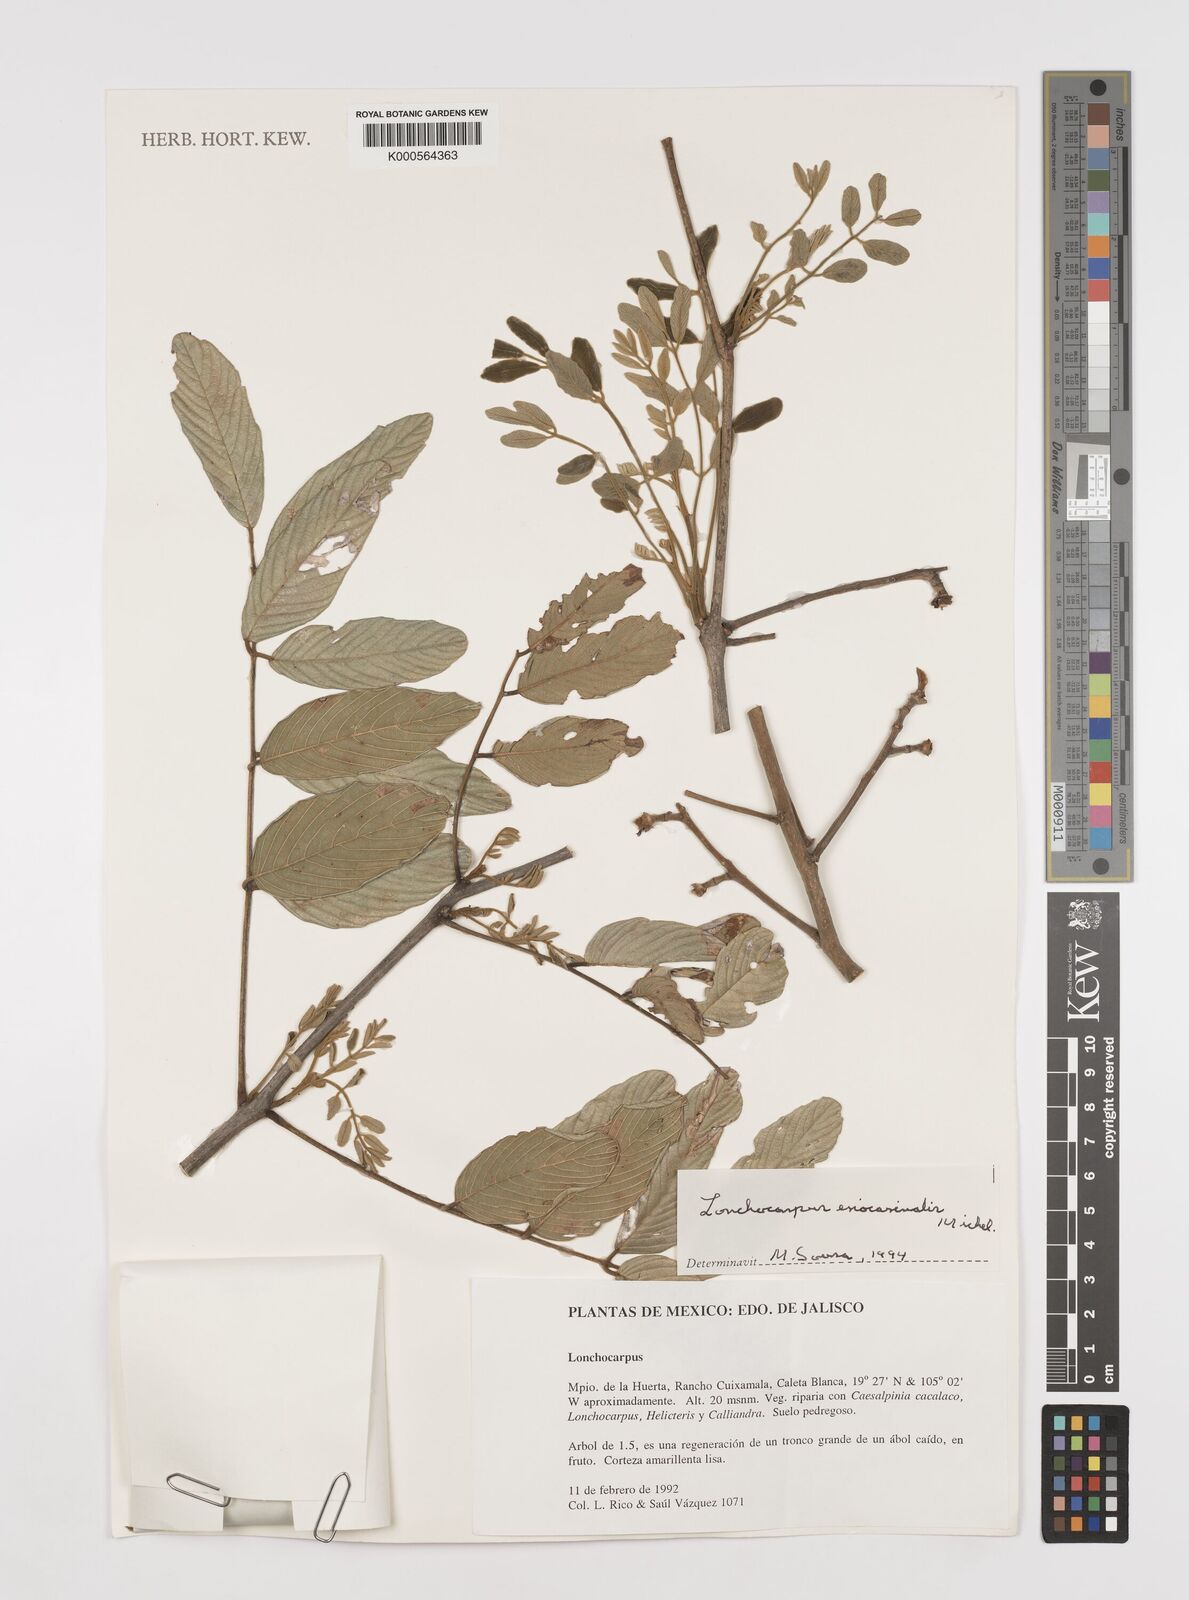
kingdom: Plantae
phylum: Tracheophyta
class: Magnoliopsida
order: Fabales
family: Fabaceae
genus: Lonchocarpus
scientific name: Lonchocarpus eriocarinalis
